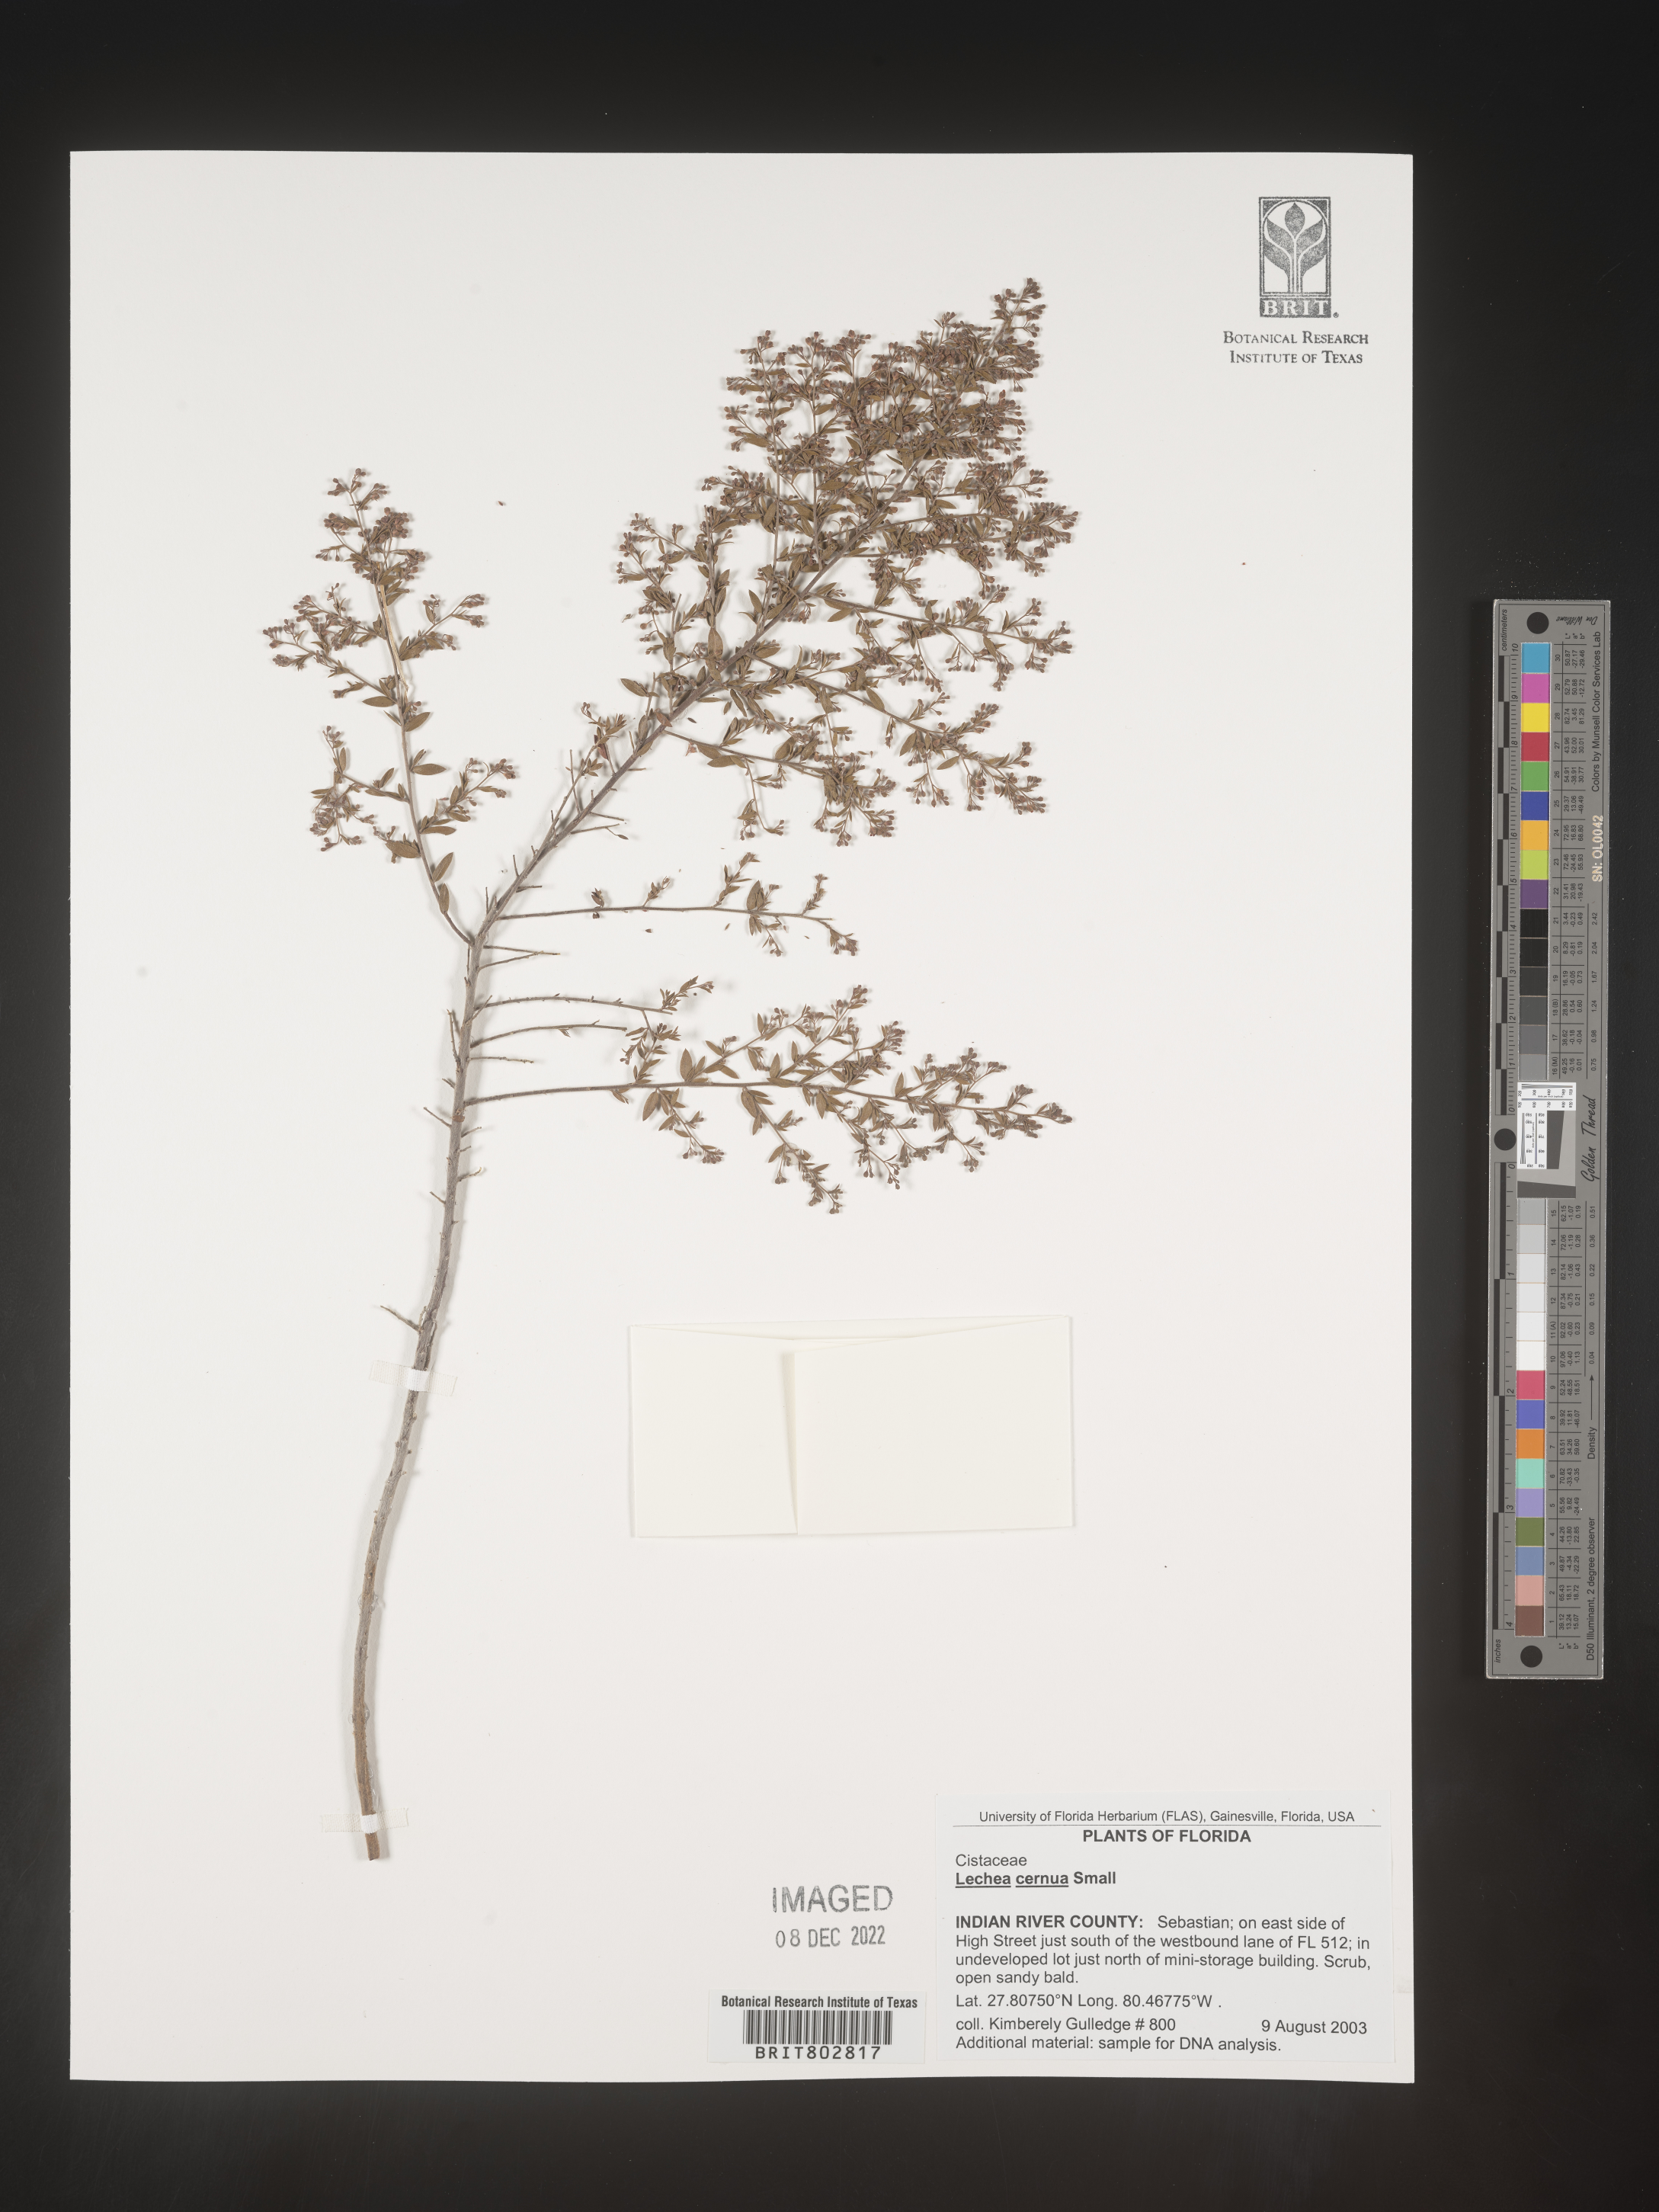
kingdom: Plantae
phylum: Tracheophyta
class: Magnoliopsida
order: Malvales
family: Cistaceae
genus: Lechea
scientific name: Lechea cernua
